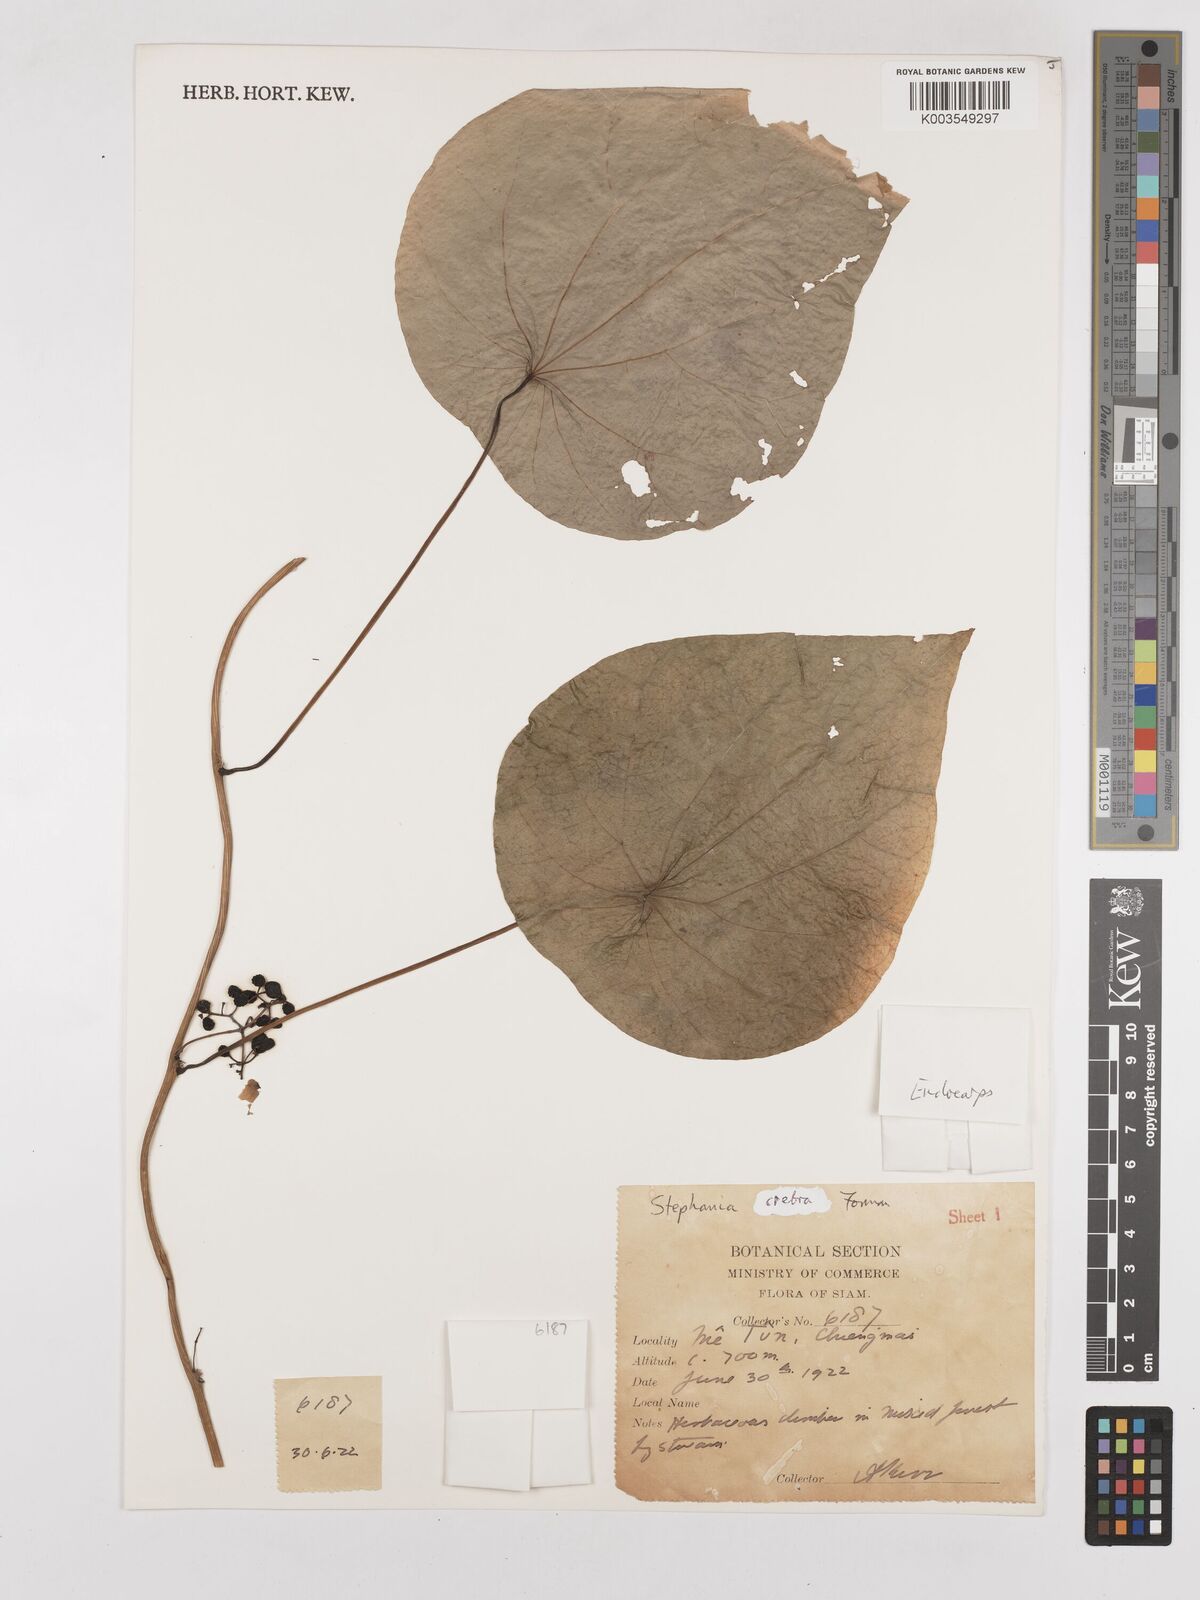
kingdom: Plantae
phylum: Tracheophyta
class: Magnoliopsida
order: Ranunculales
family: Menispermaceae
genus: Stephania
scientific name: Stephania crebra
